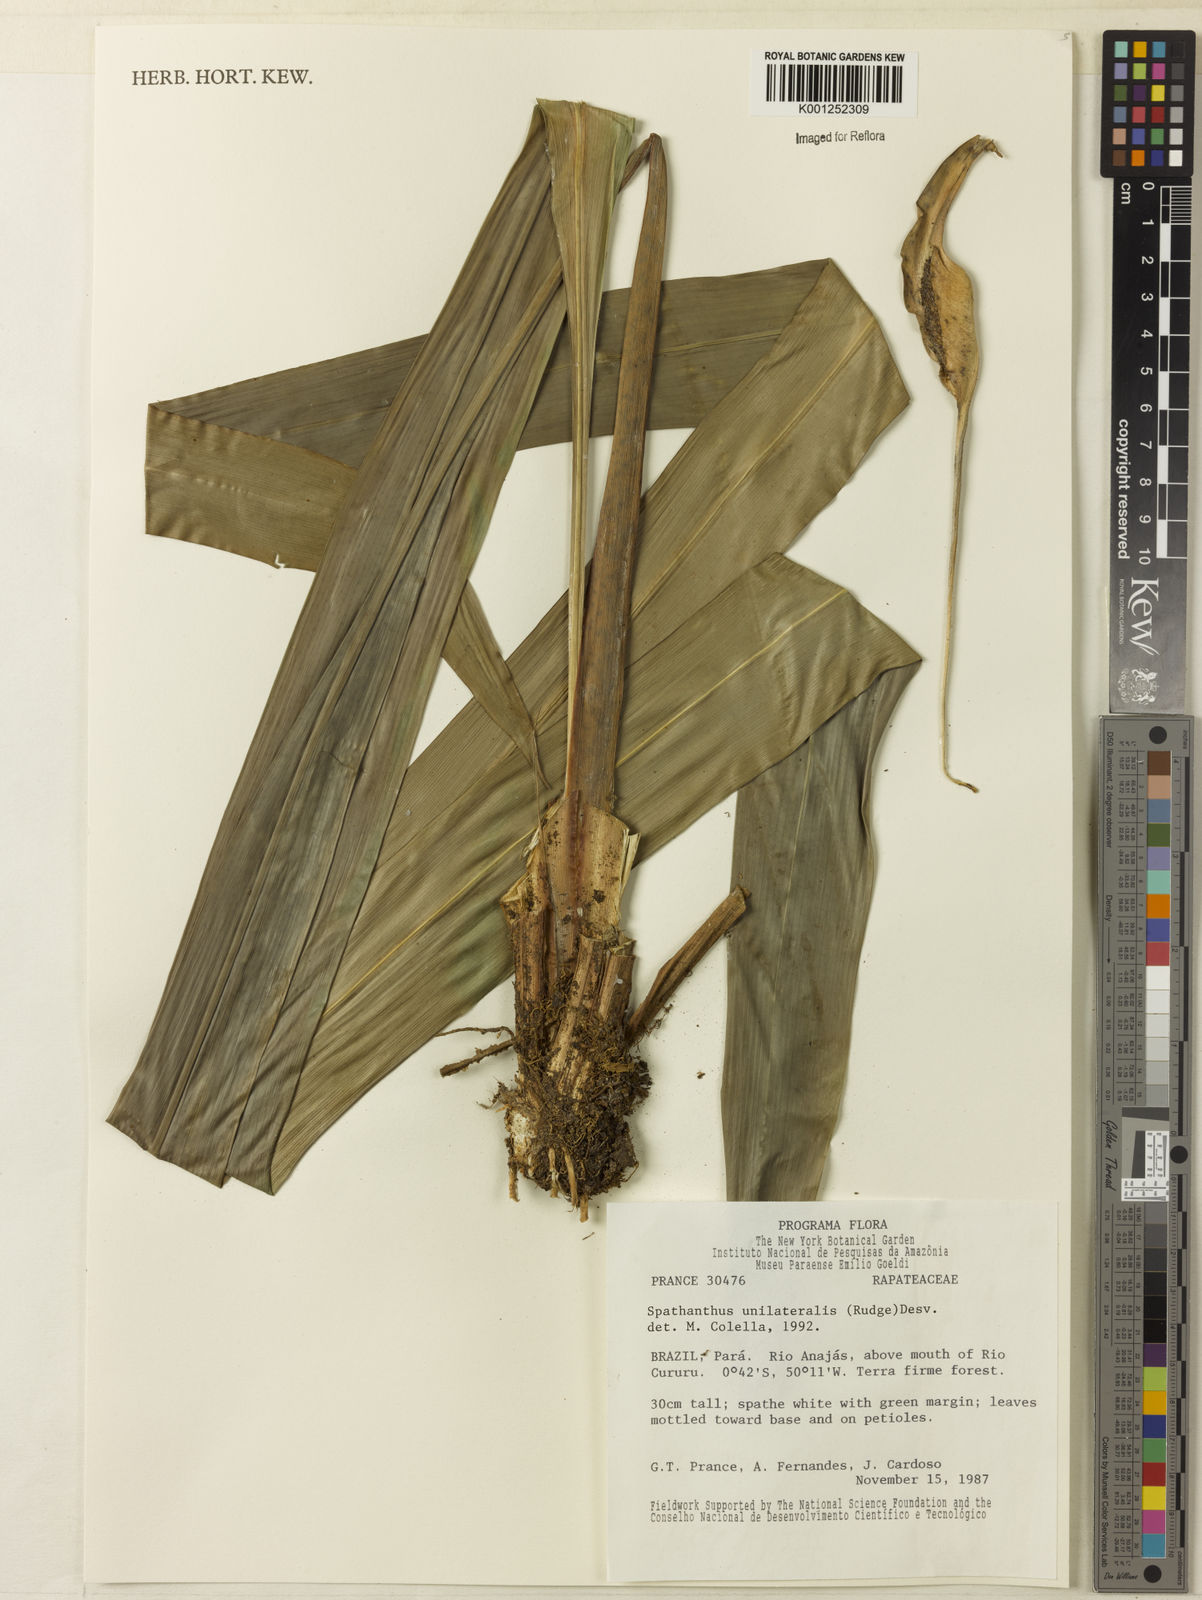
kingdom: Plantae
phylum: Tracheophyta
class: Liliopsida
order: Poales
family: Rapateaceae
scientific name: Rapateaceae
